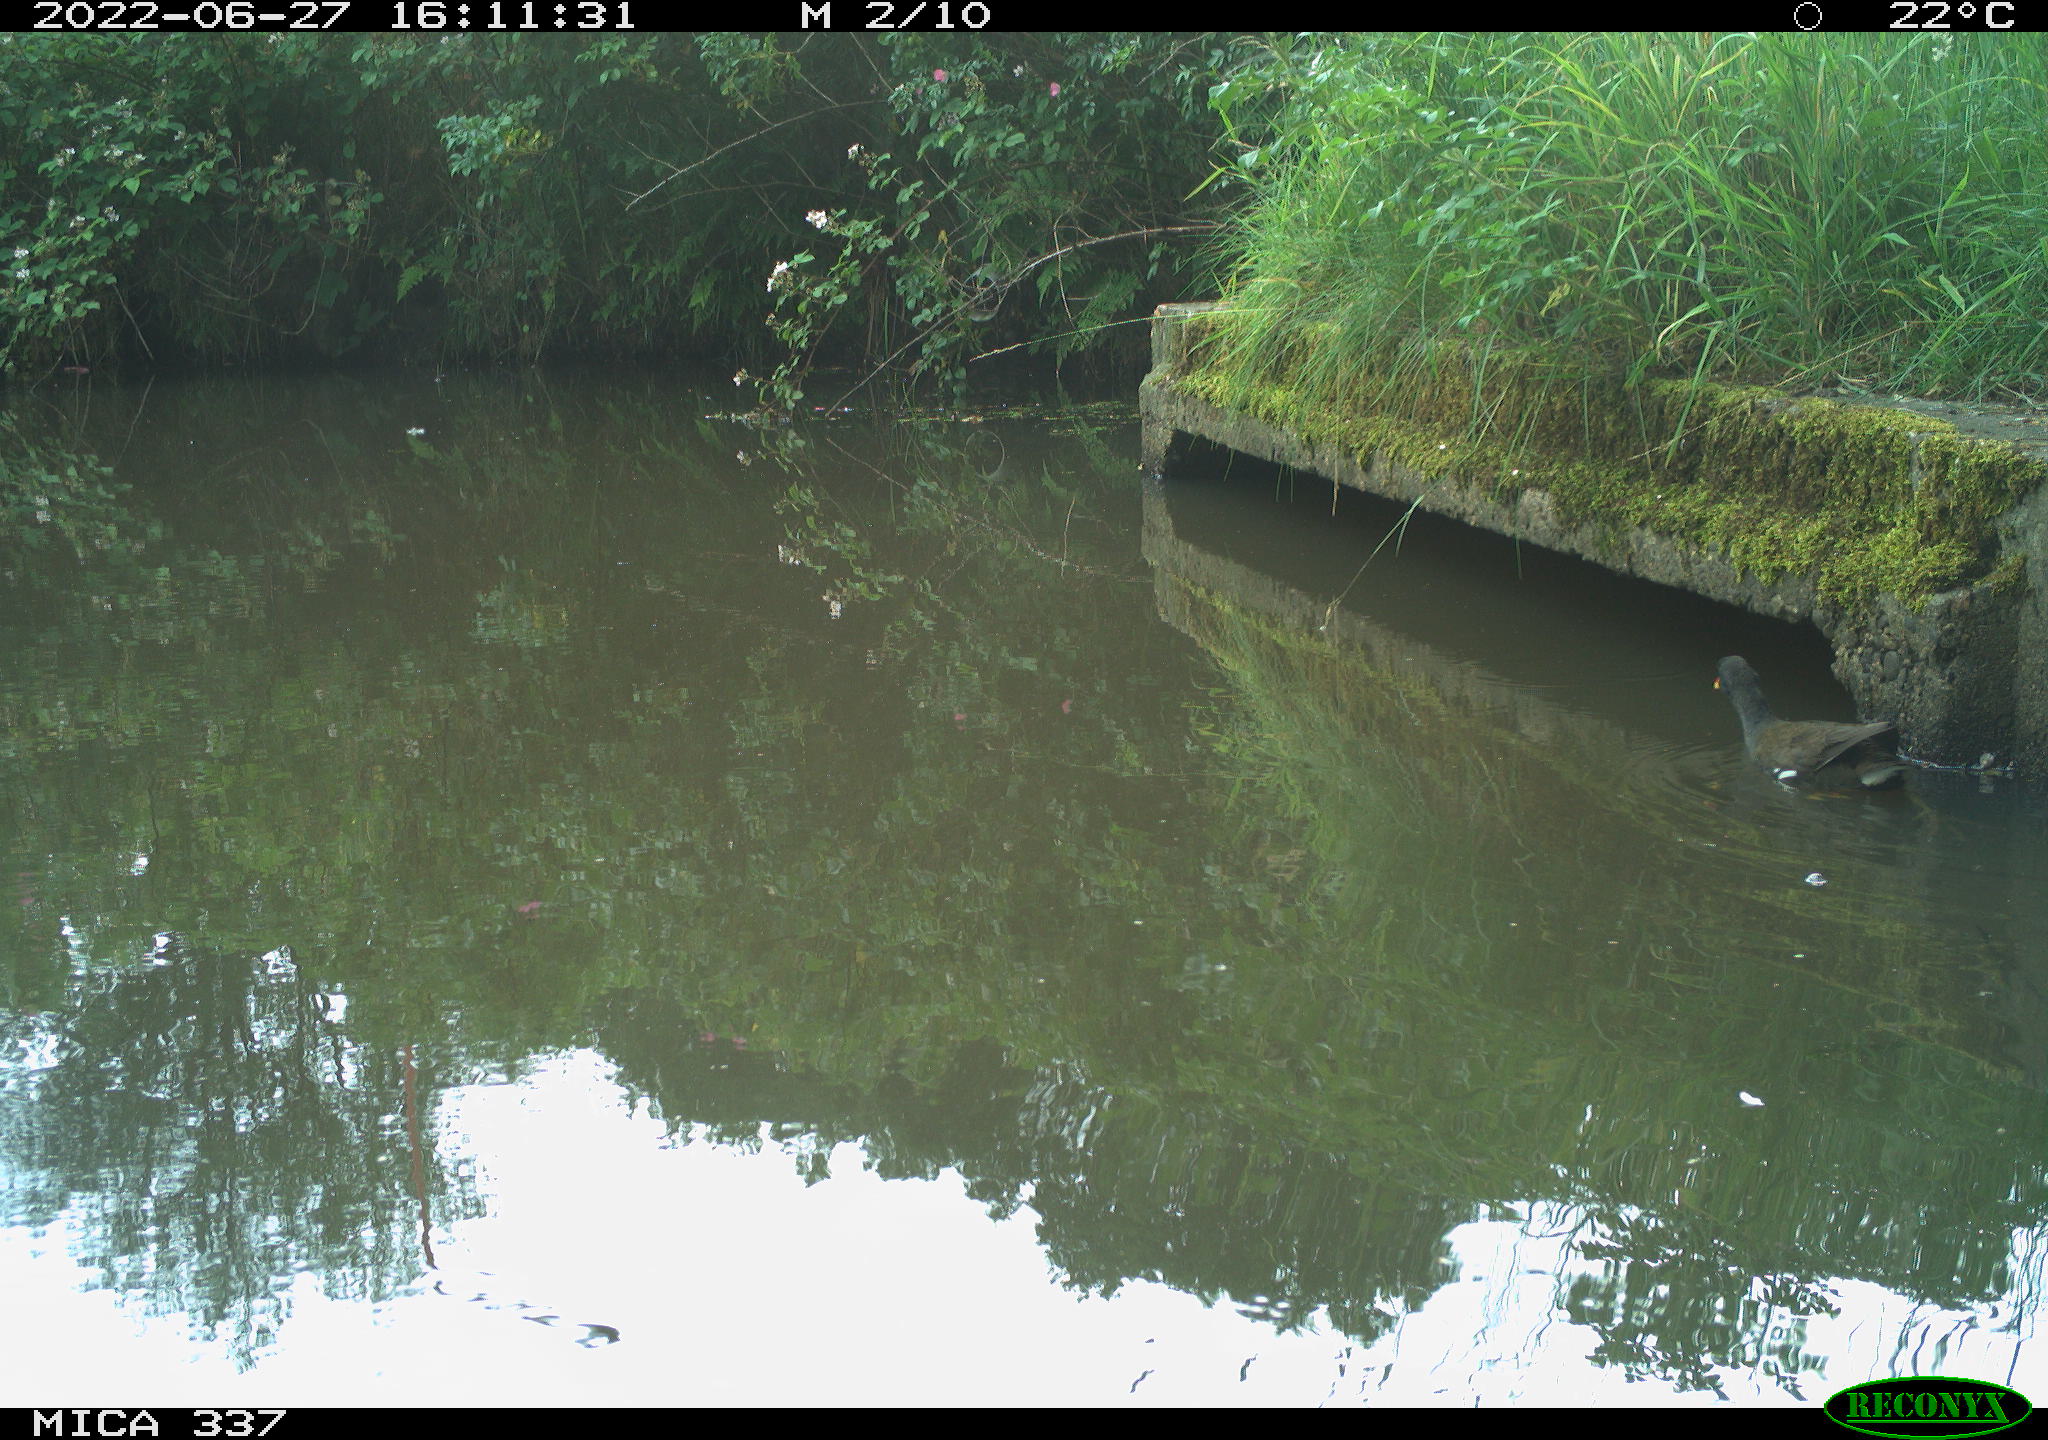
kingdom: Animalia
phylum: Chordata
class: Aves
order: Gruiformes
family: Rallidae
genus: Gallinula
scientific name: Gallinula chloropus
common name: Common moorhen
